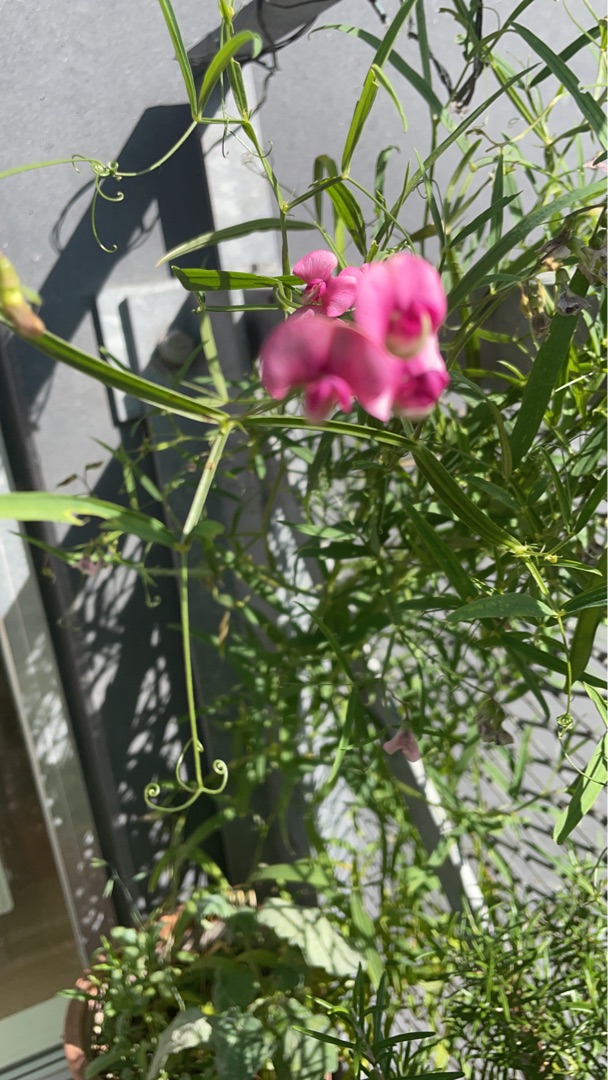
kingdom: Plantae
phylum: Tracheophyta
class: Magnoliopsida
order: Fabales
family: Fabaceae
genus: Lathyrus
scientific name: Lathyrus sylvestris
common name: Skov-fladbælg
